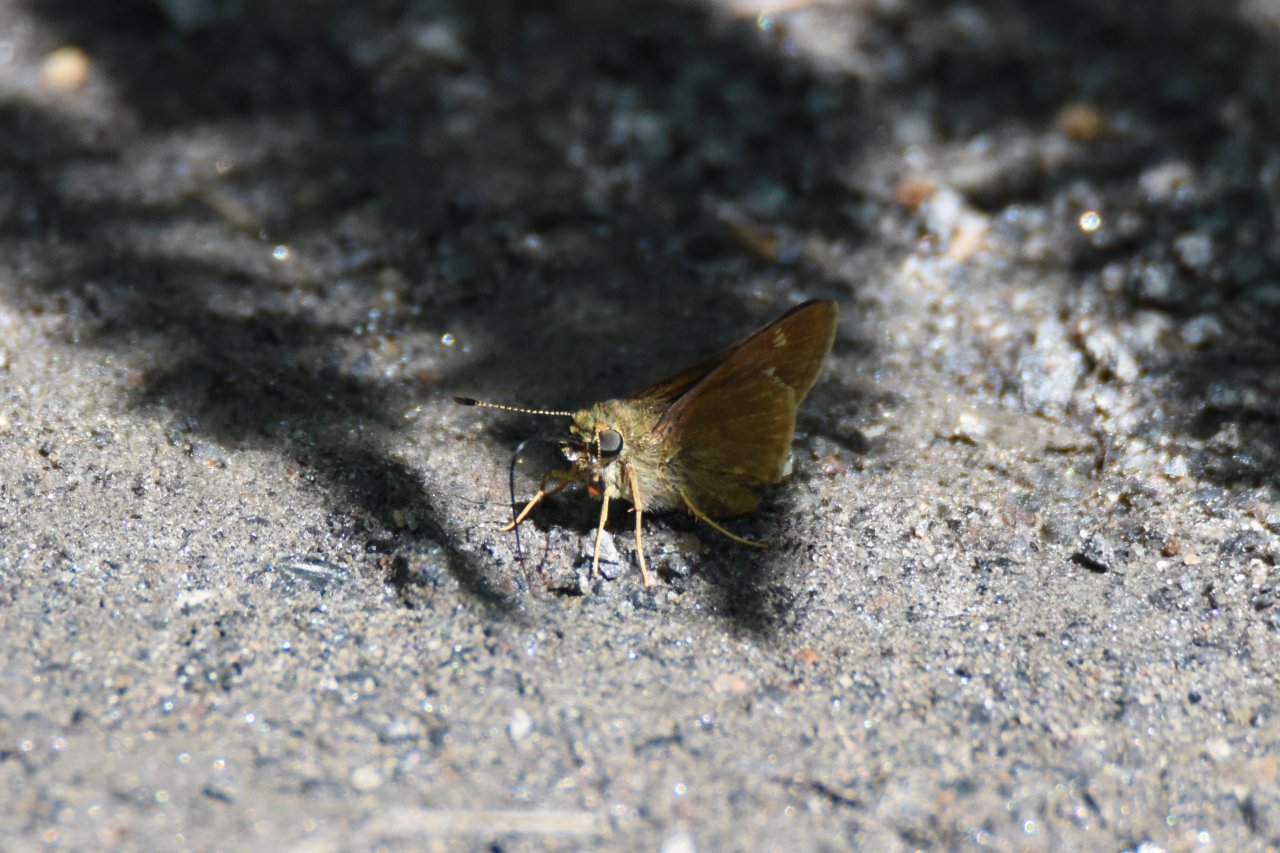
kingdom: Animalia
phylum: Arthropoda
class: Insecta
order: Lepidoptera
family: Hesperiidae
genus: Polites
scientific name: Polites themistocles
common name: Tawny-edged Skipper
